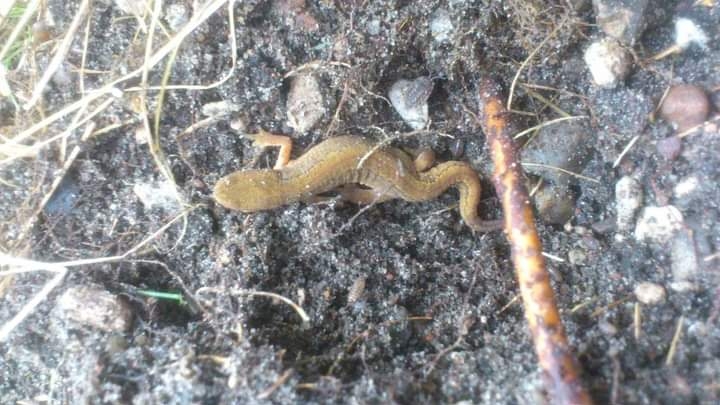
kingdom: Animalia
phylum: Chordata
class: Amphibia
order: Caudata
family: Salamandridae
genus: Lissotriton
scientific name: Lissotriton vulgaris
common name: Lille vandsalamander
